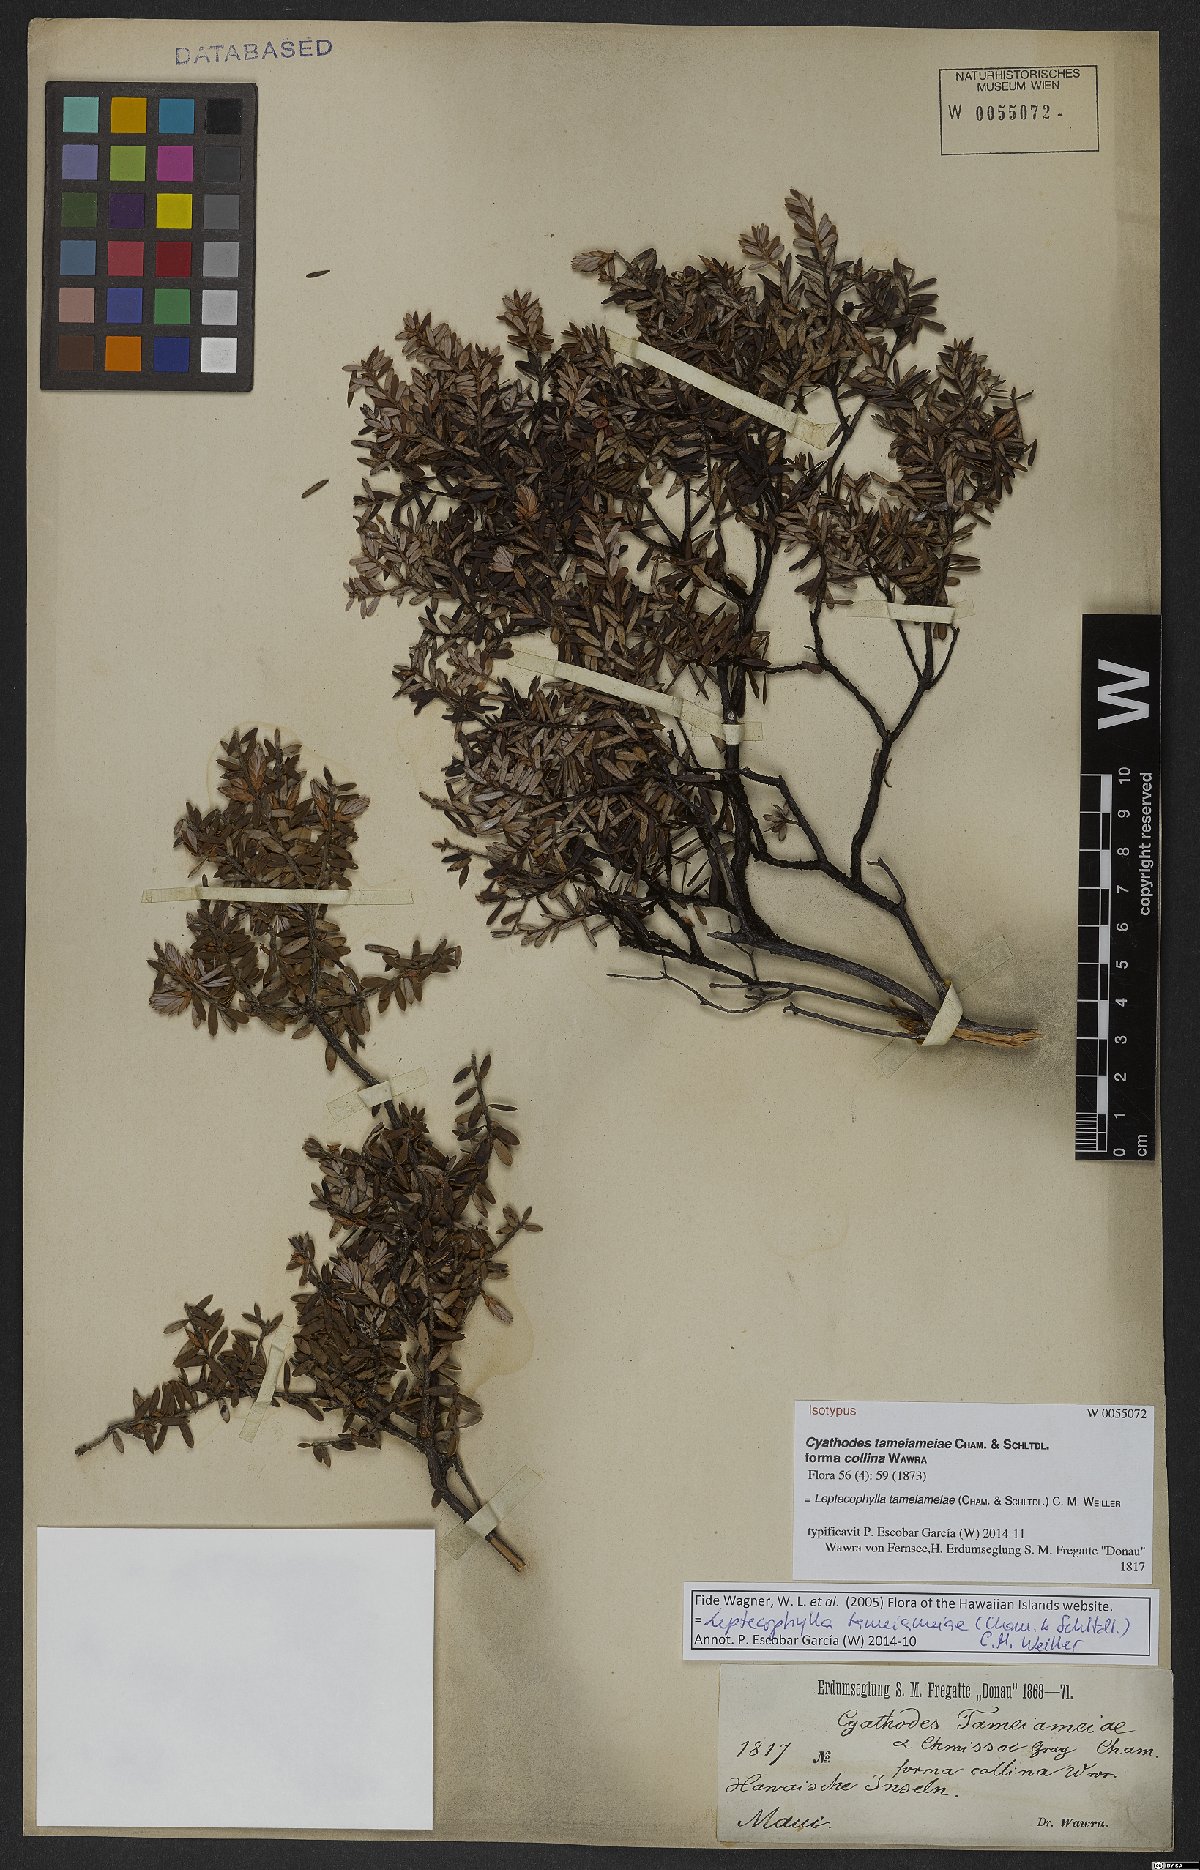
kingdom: Plantae
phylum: Tracheophyta
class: Magnoliopsida
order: Ericales
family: Ericaceae
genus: Leptecophylla
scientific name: Leptecophylla tameiameiae
